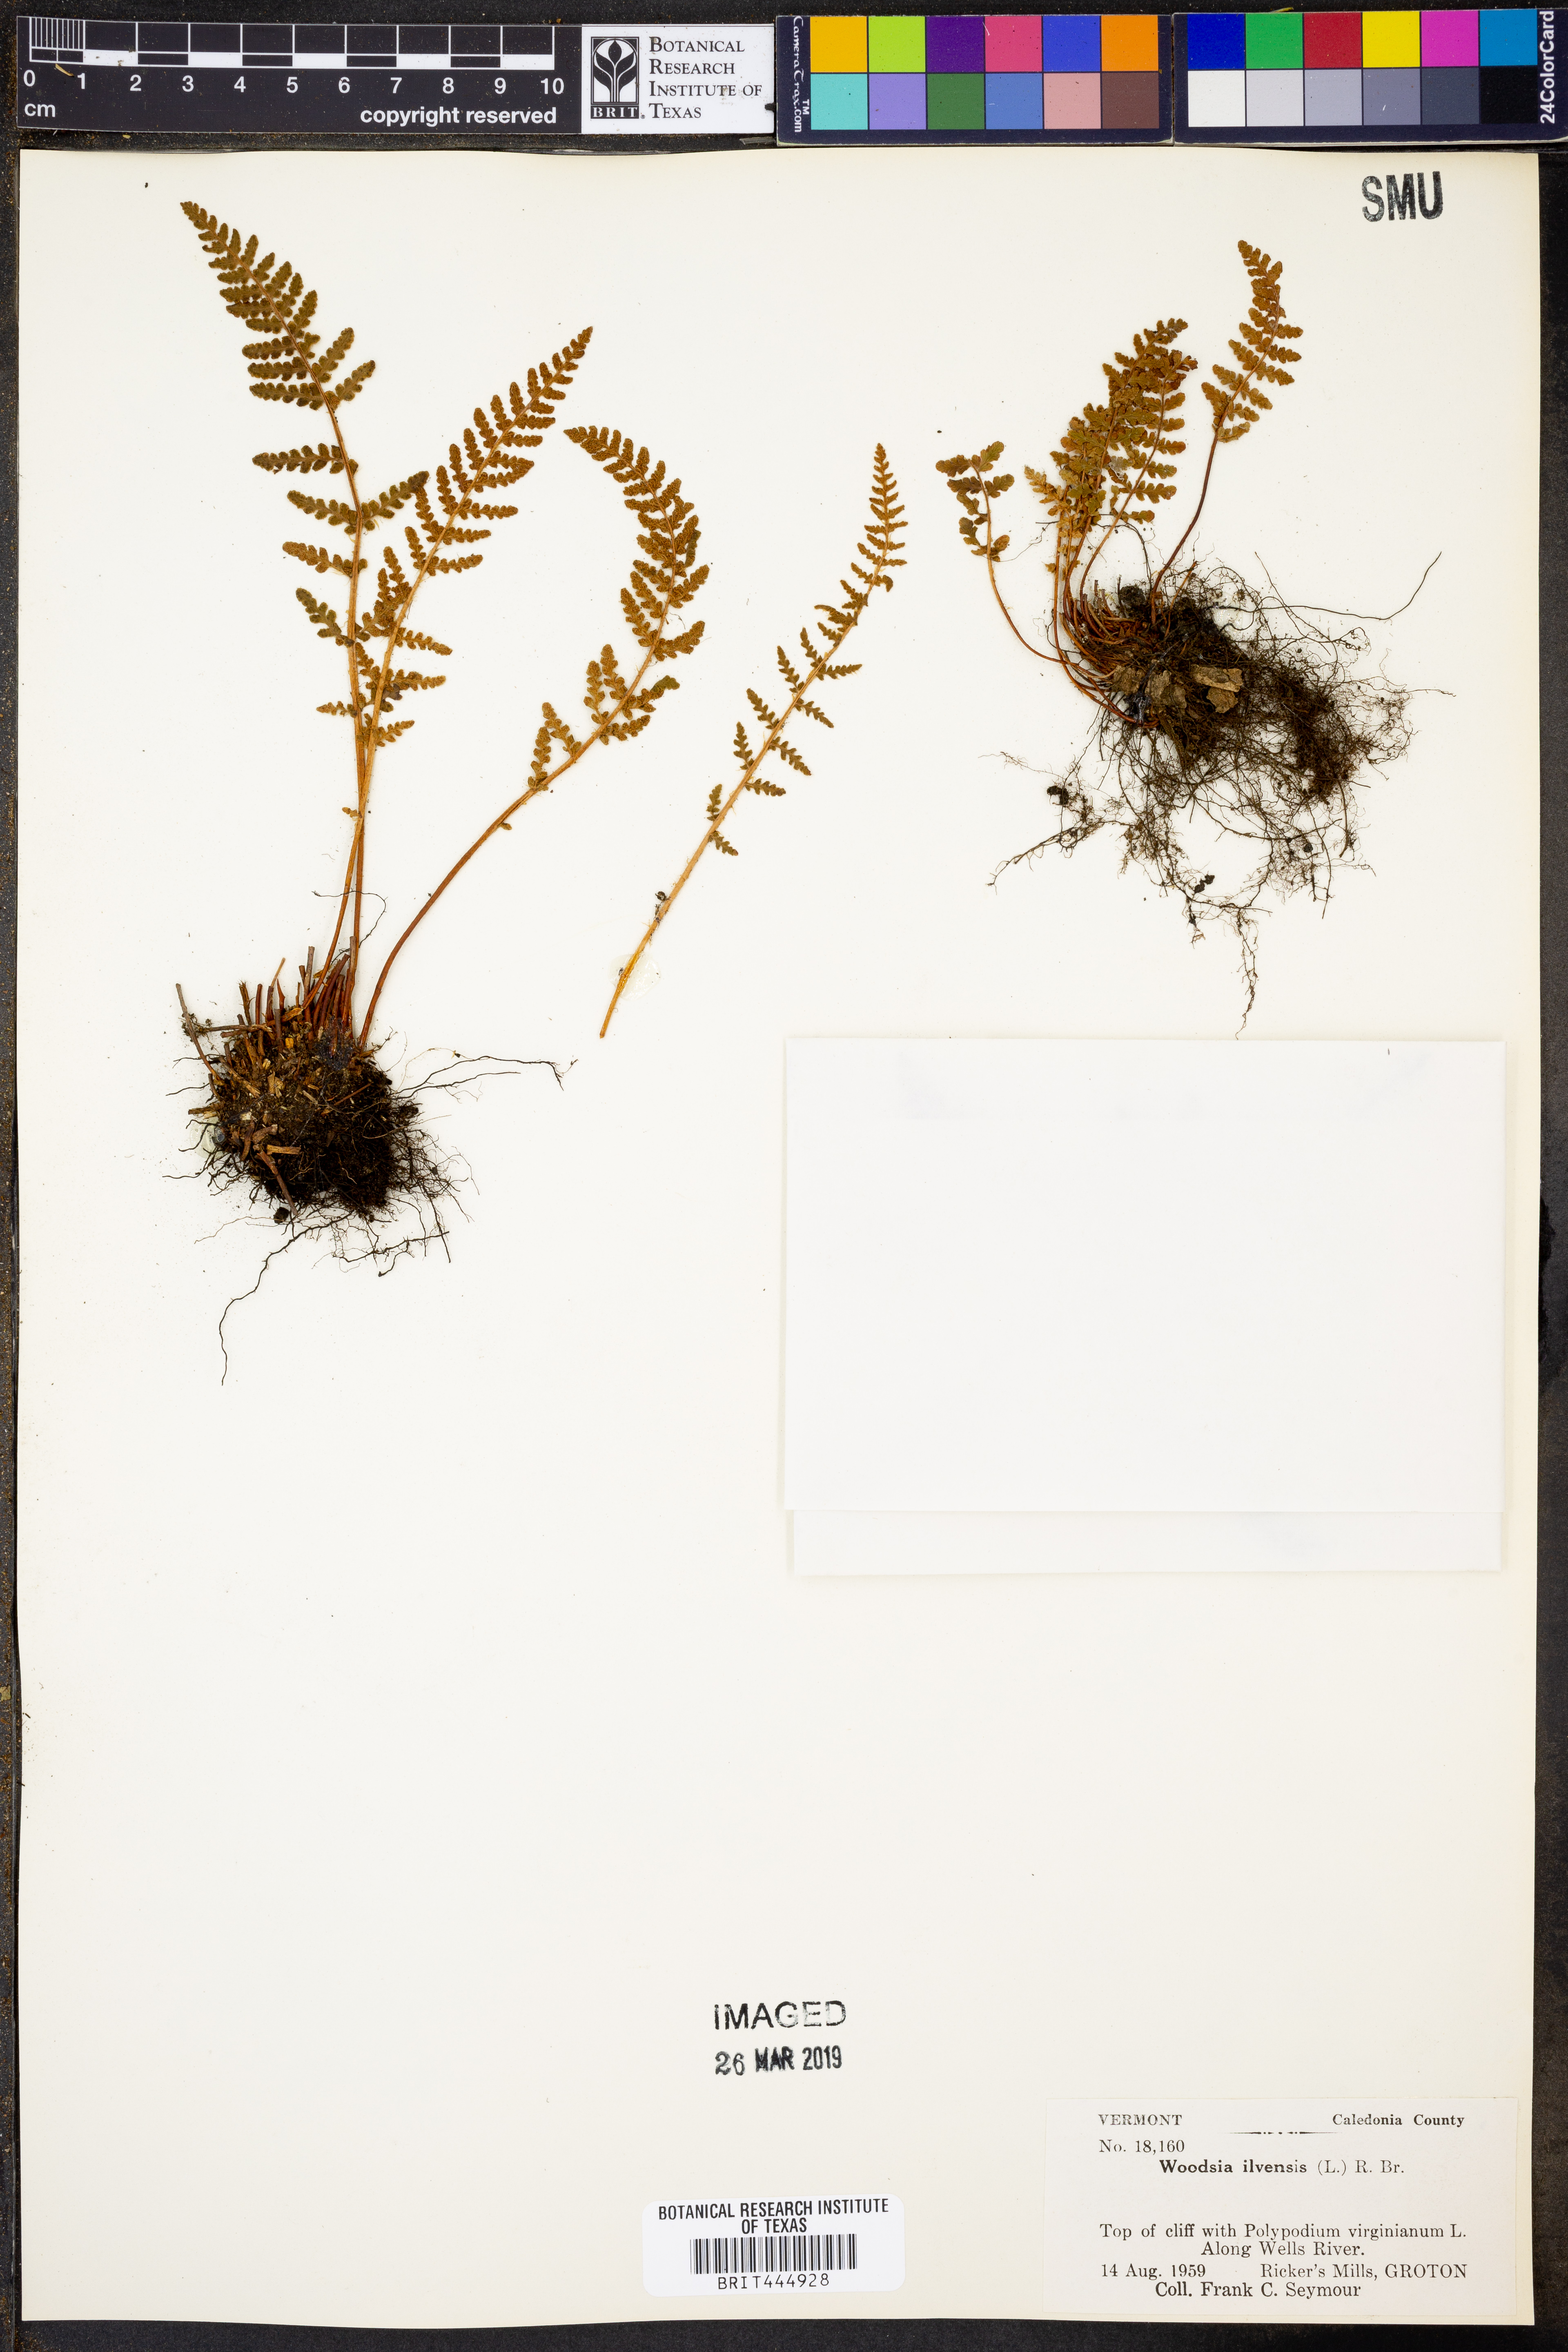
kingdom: Plantae
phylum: Tracheophyta
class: Polypodiopsida
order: Polypodiales
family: Woodsiaceae
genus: Woodsia
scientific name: Woodsia ilvensis
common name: Fragrant woodsia
